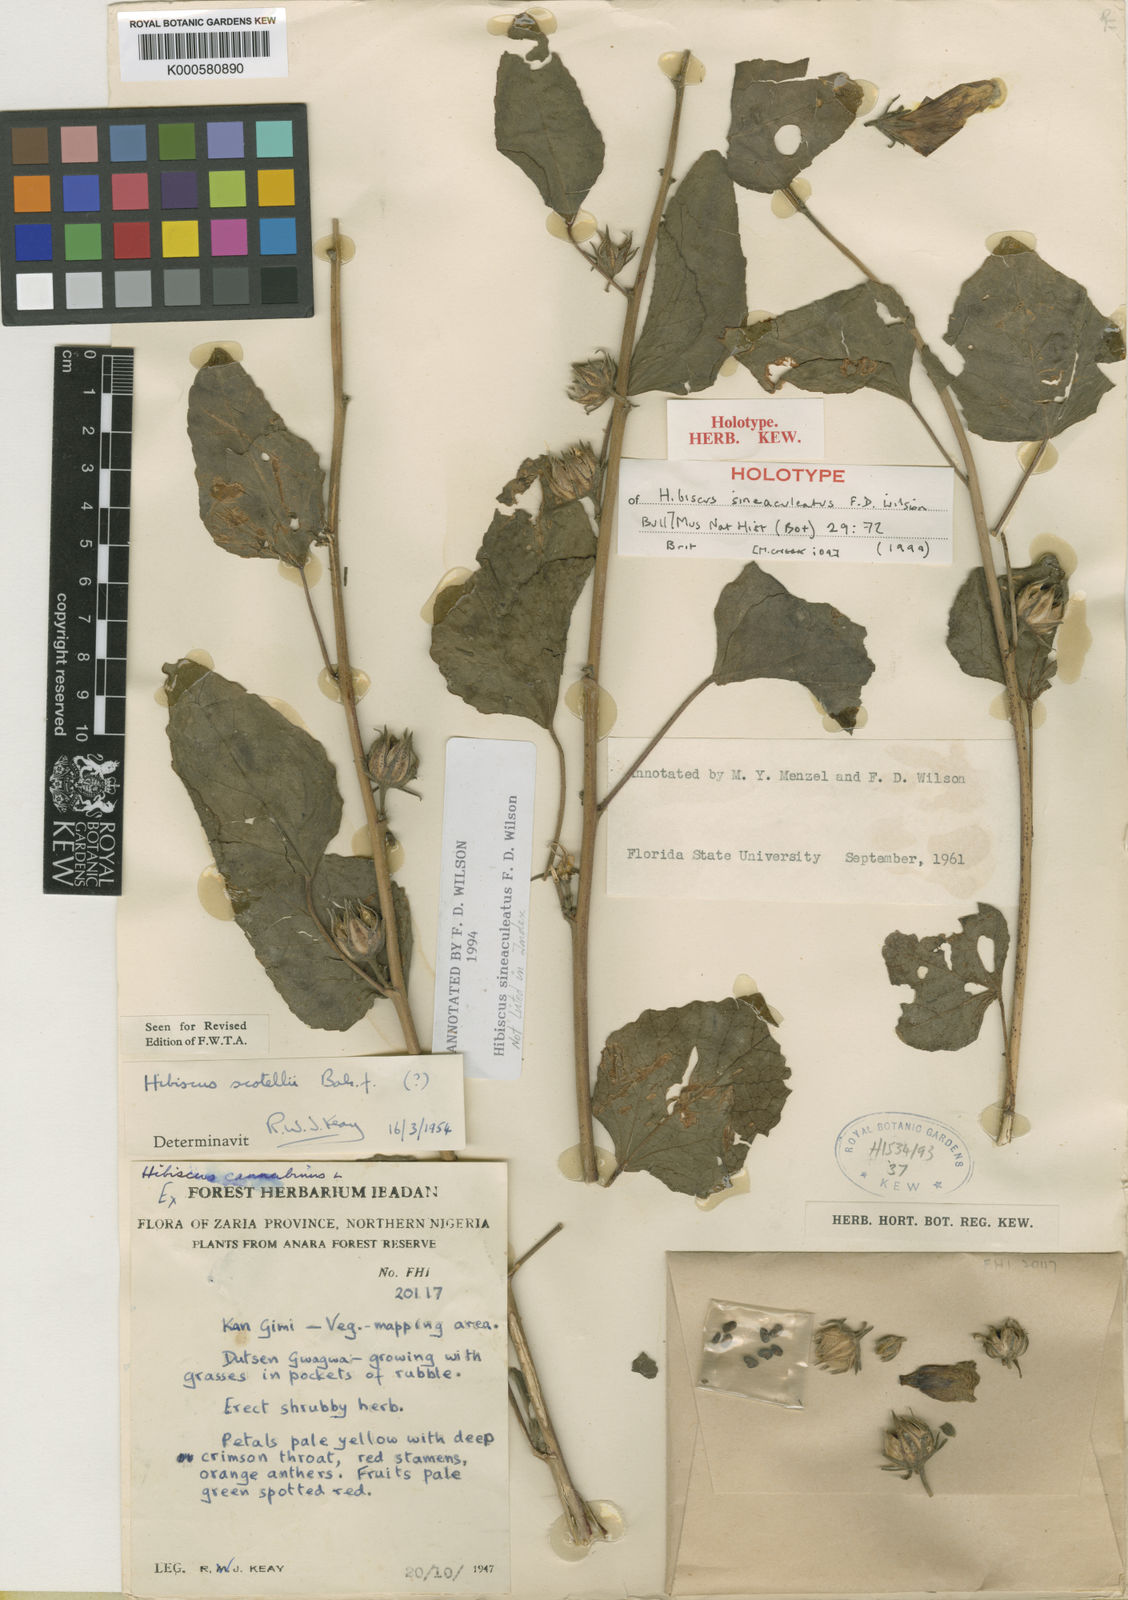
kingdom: Plantae
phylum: Tracheophyta
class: Magnoliopsida
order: Malvales
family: Malvaceae
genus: Hibiscus
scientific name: Hibiscus sineaculeatus
